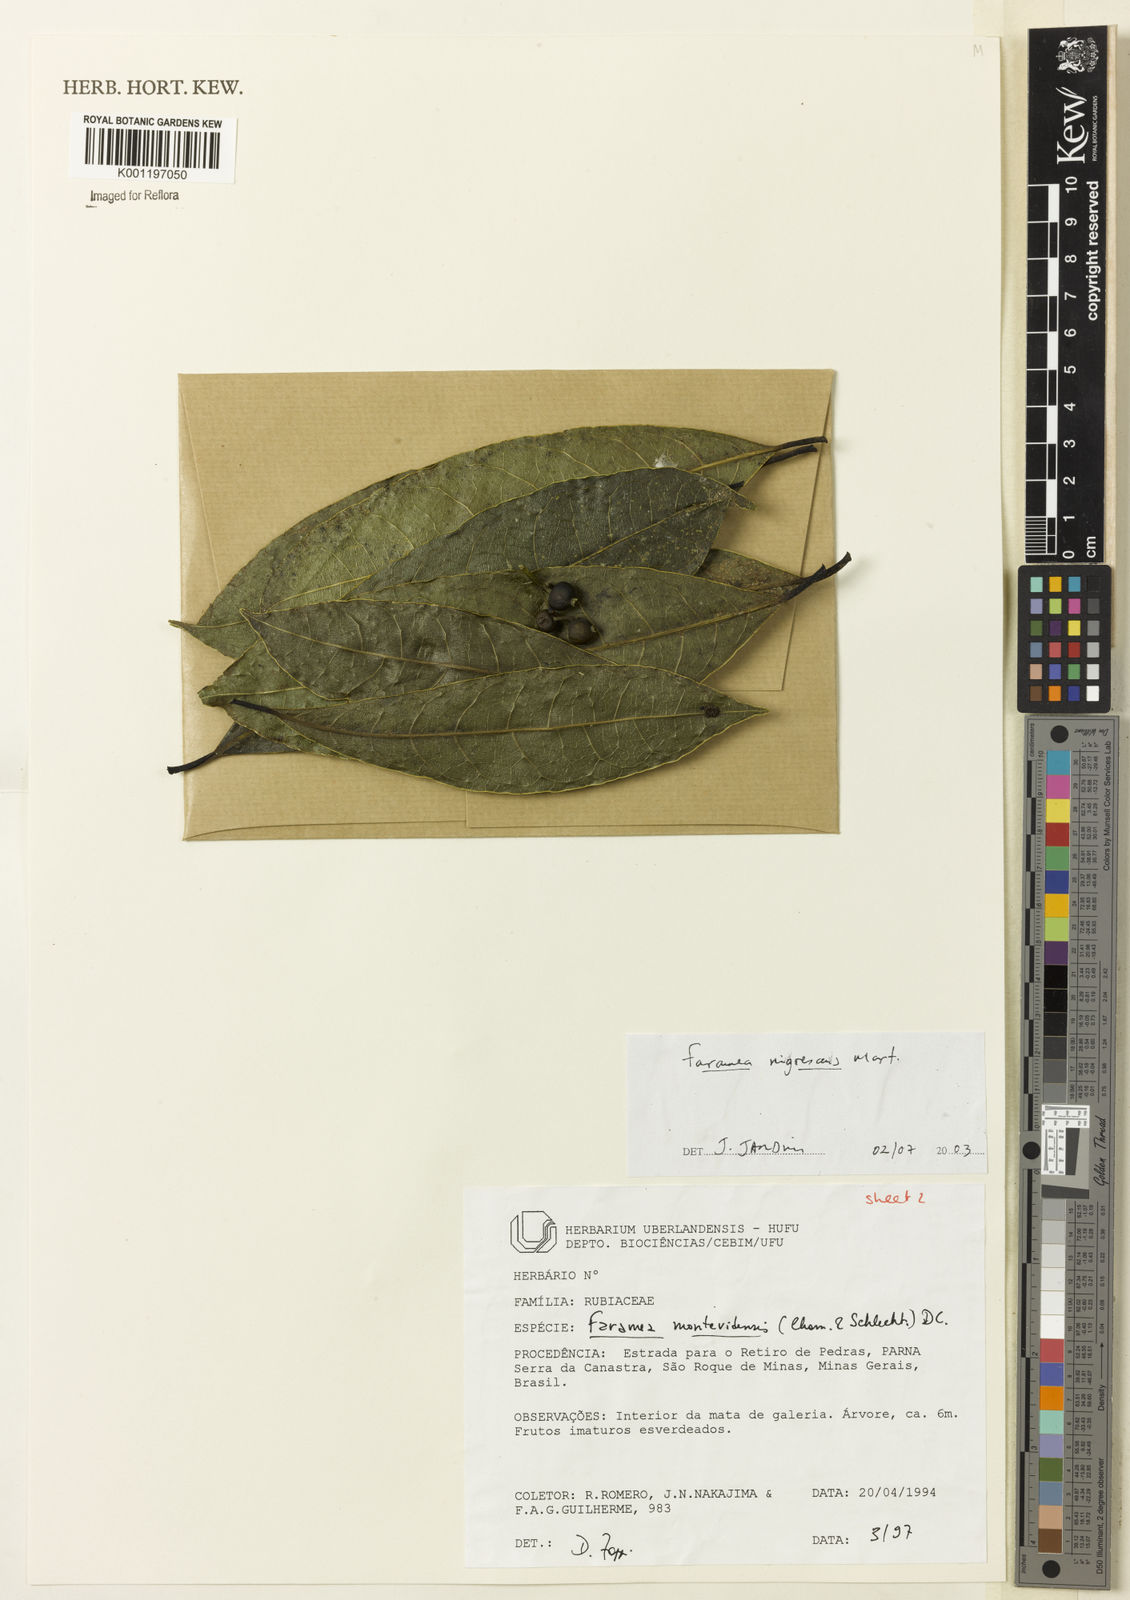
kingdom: Plantae
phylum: Tracheophyta
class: Magnoliopsida
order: Gentianales
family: Rubiaceae
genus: Faramea
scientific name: Faramea nigrescens
